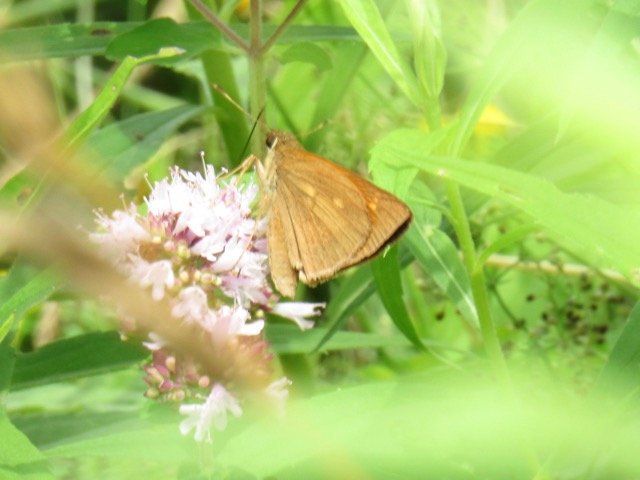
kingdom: Animalia
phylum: Arthropoda
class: Insecta
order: Lepidoptera
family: Hesperiidae
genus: Poanes
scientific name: Poanes viator
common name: Broad-winged Skipper
